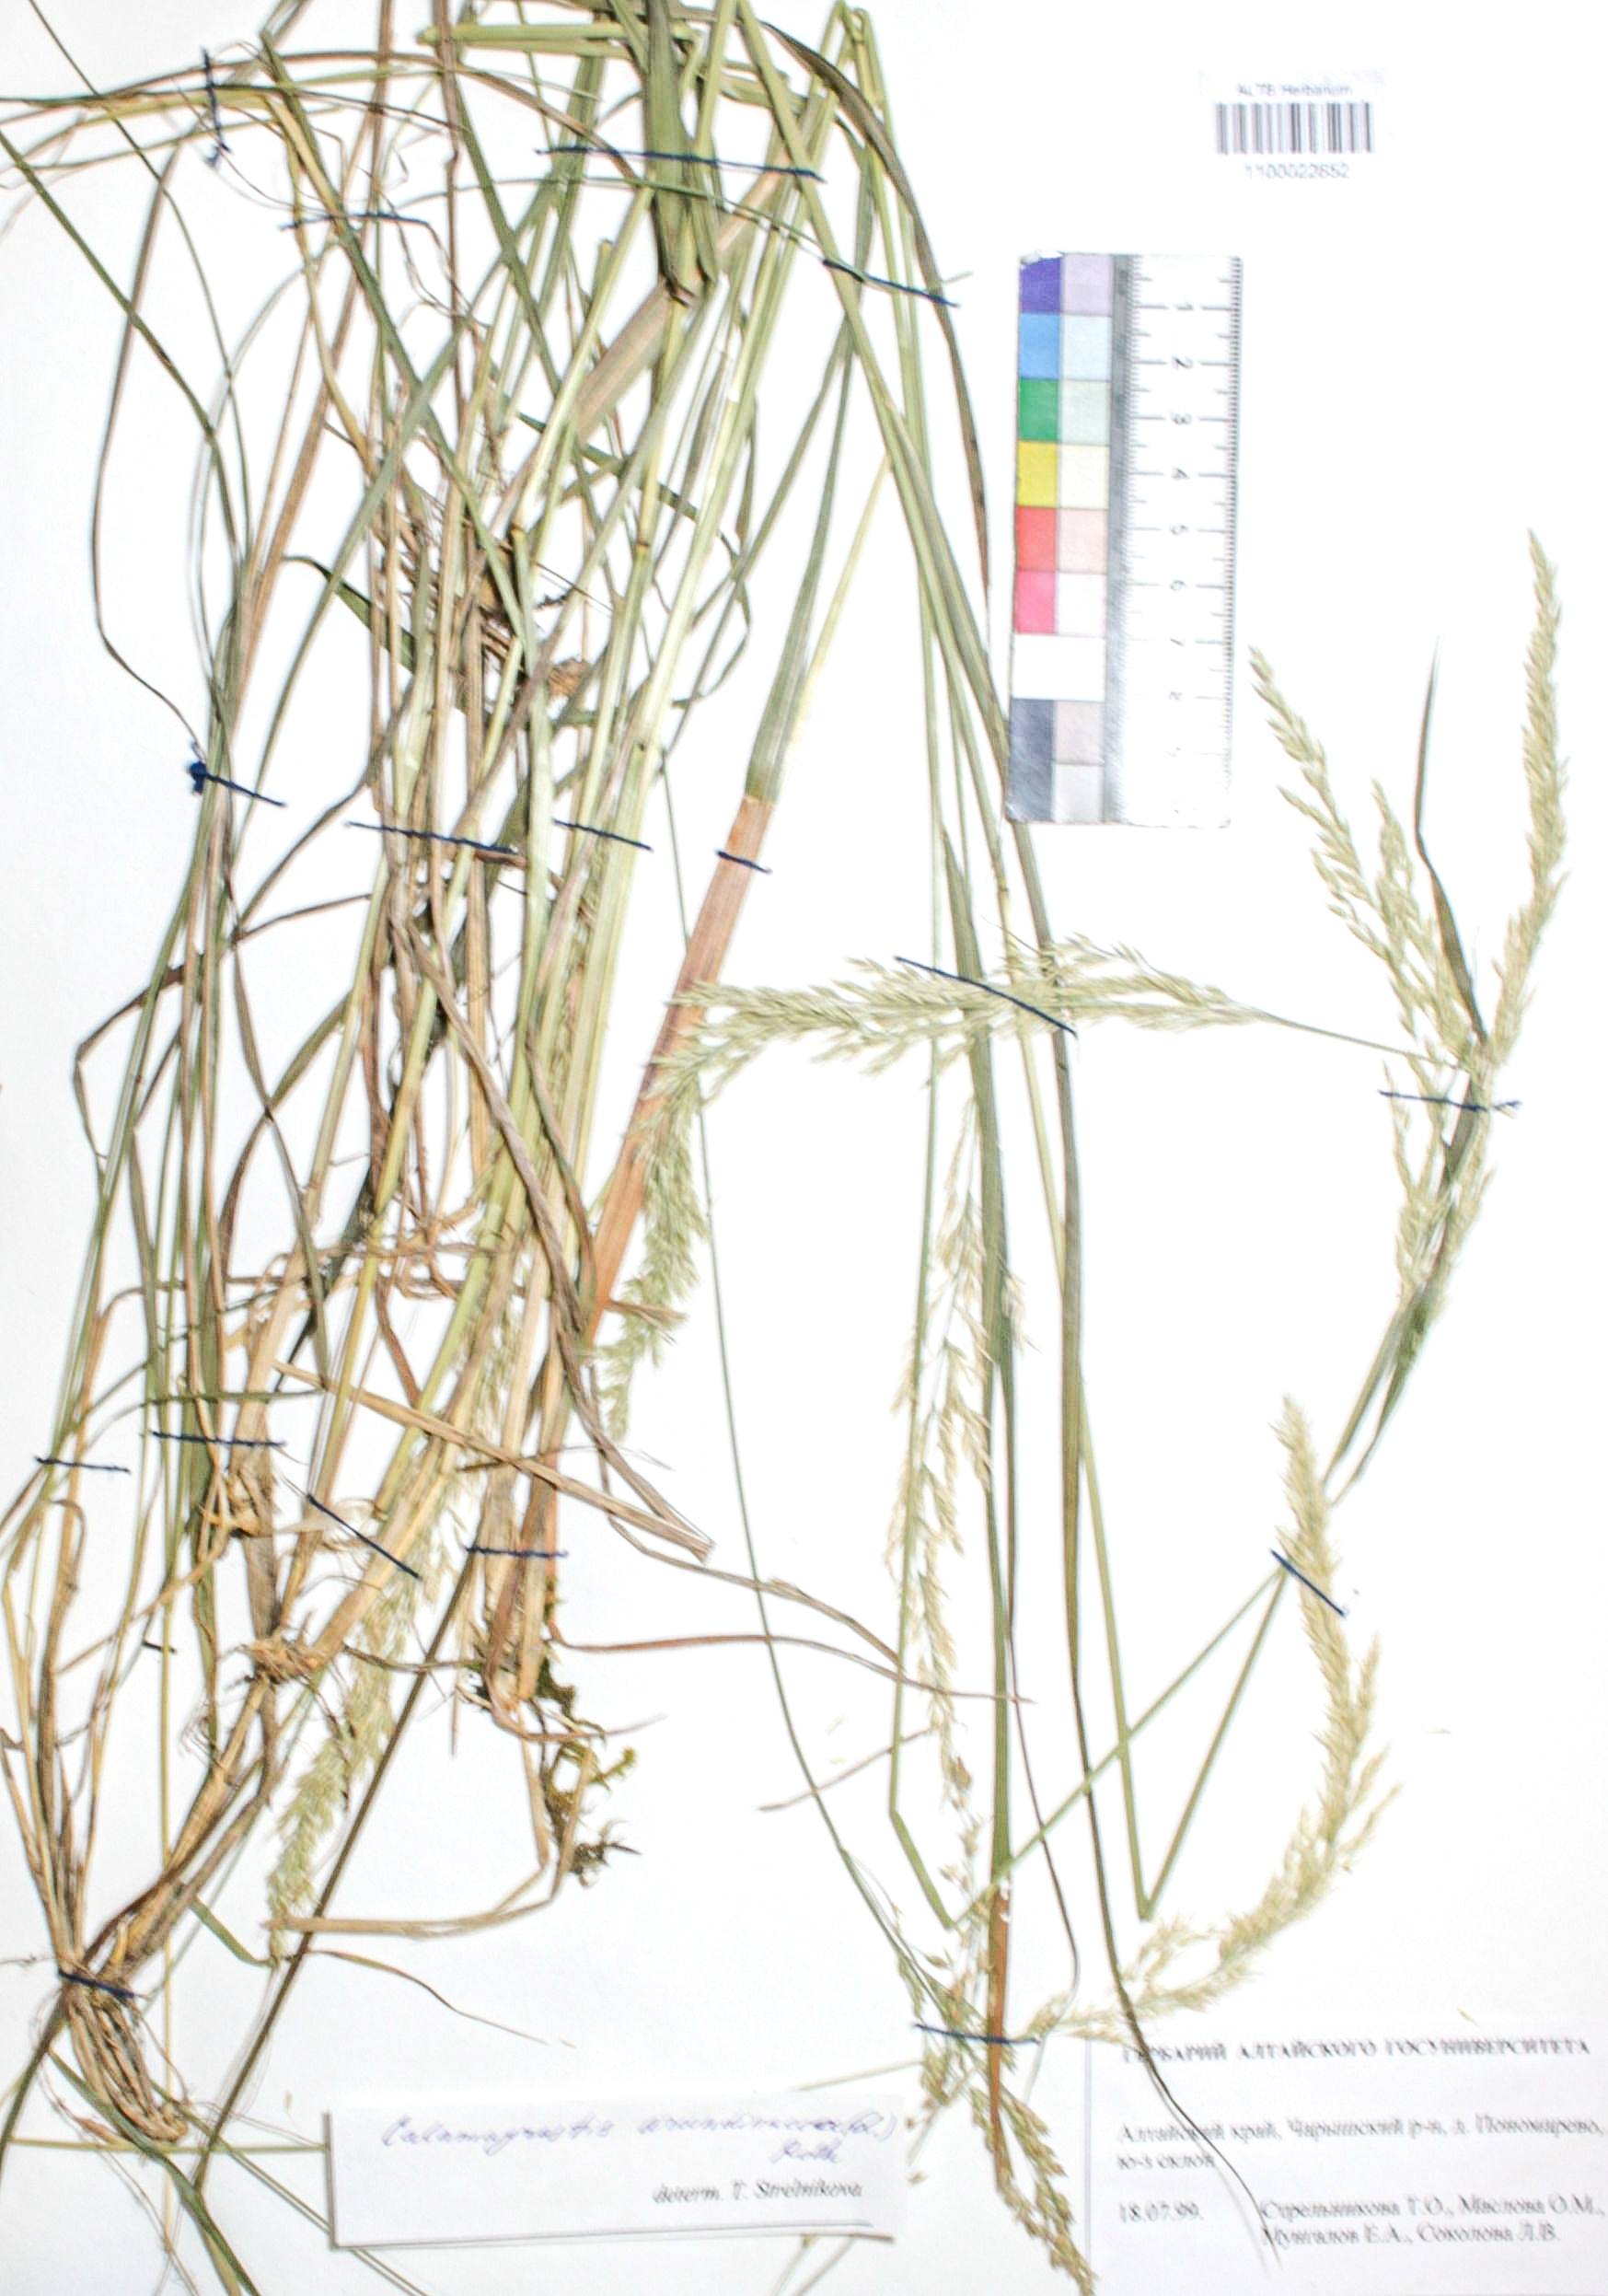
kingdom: Plantae
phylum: Tracheophyta
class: Liliopsida
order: Poales
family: Poaceae
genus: Calamagrostis
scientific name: Calamagrostis arundinacea
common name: Metskastik
